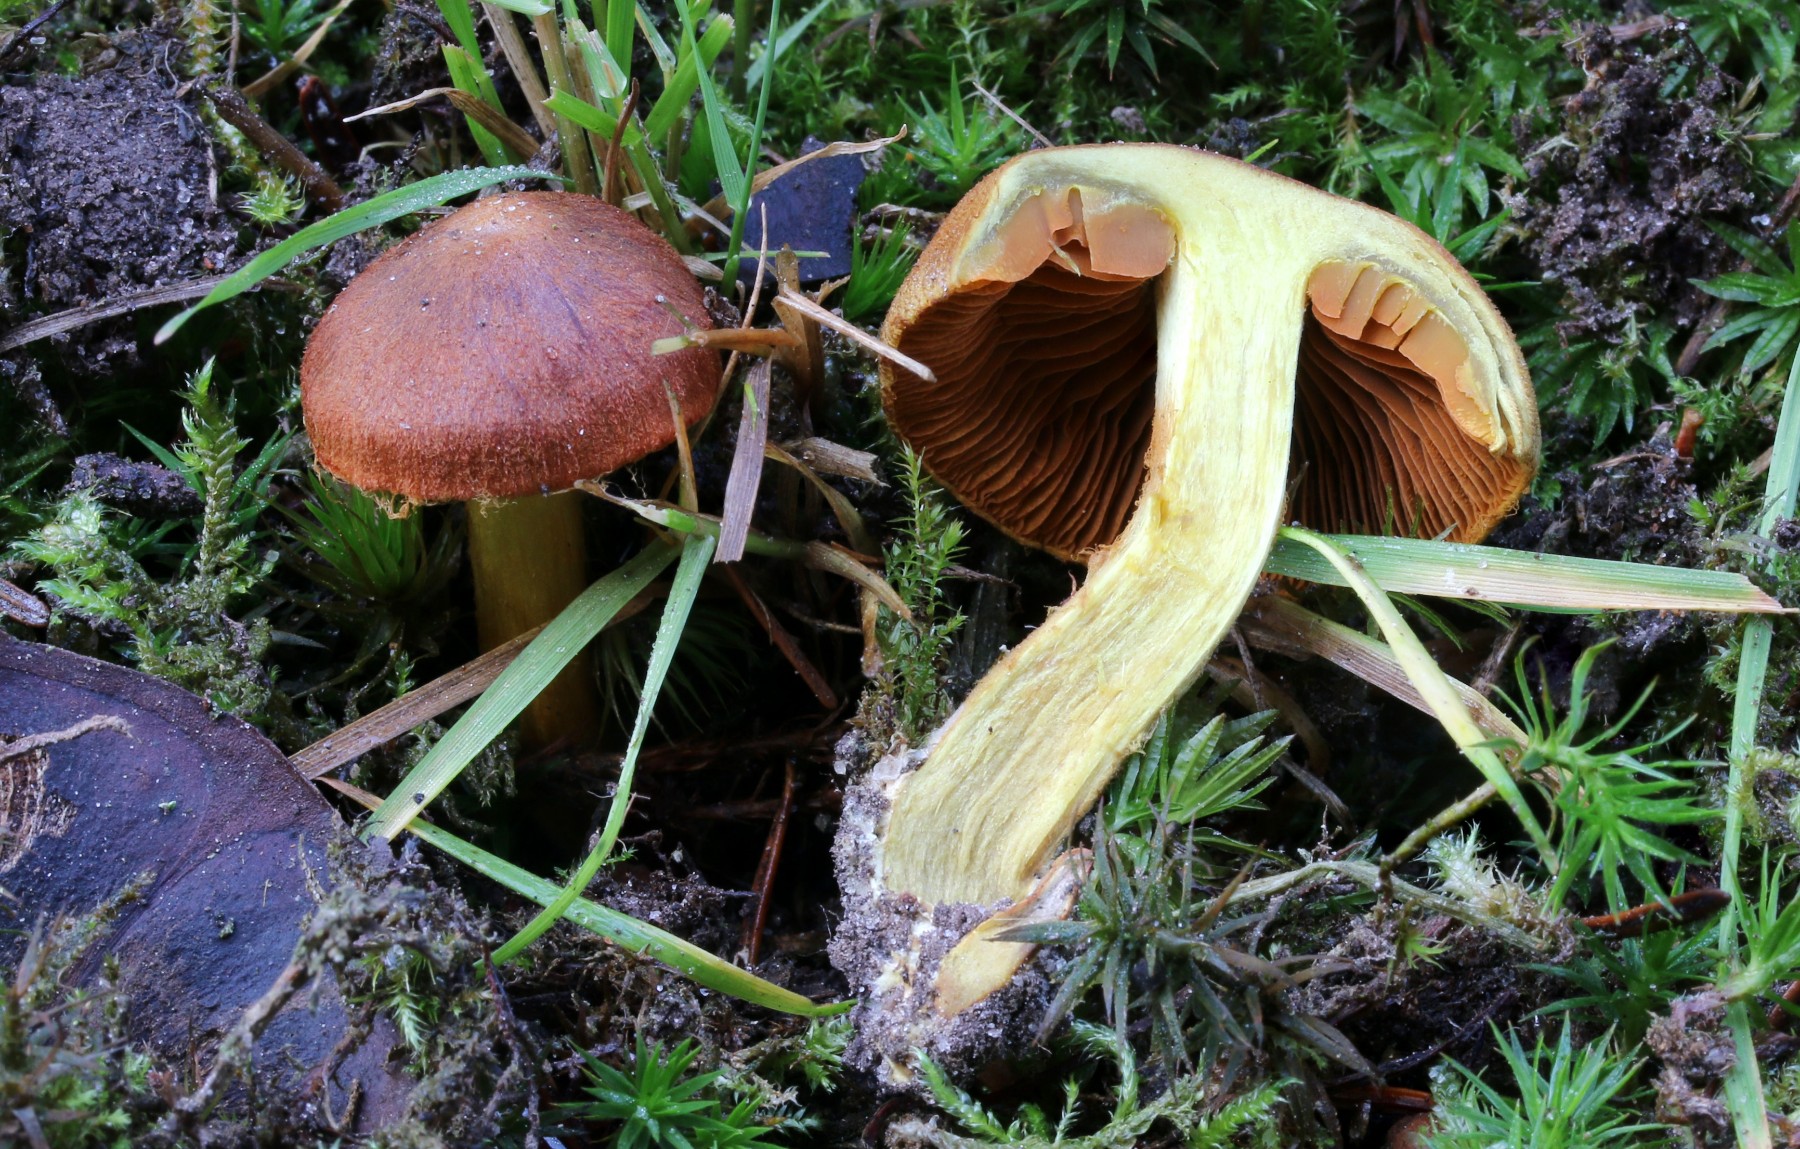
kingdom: Fungi
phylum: Basidiomycota
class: Agaricomycetes
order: Agaricales
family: Cortinariaceae
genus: Cortinarius
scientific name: Cortinarius malicorius
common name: grønkødet slørhat
